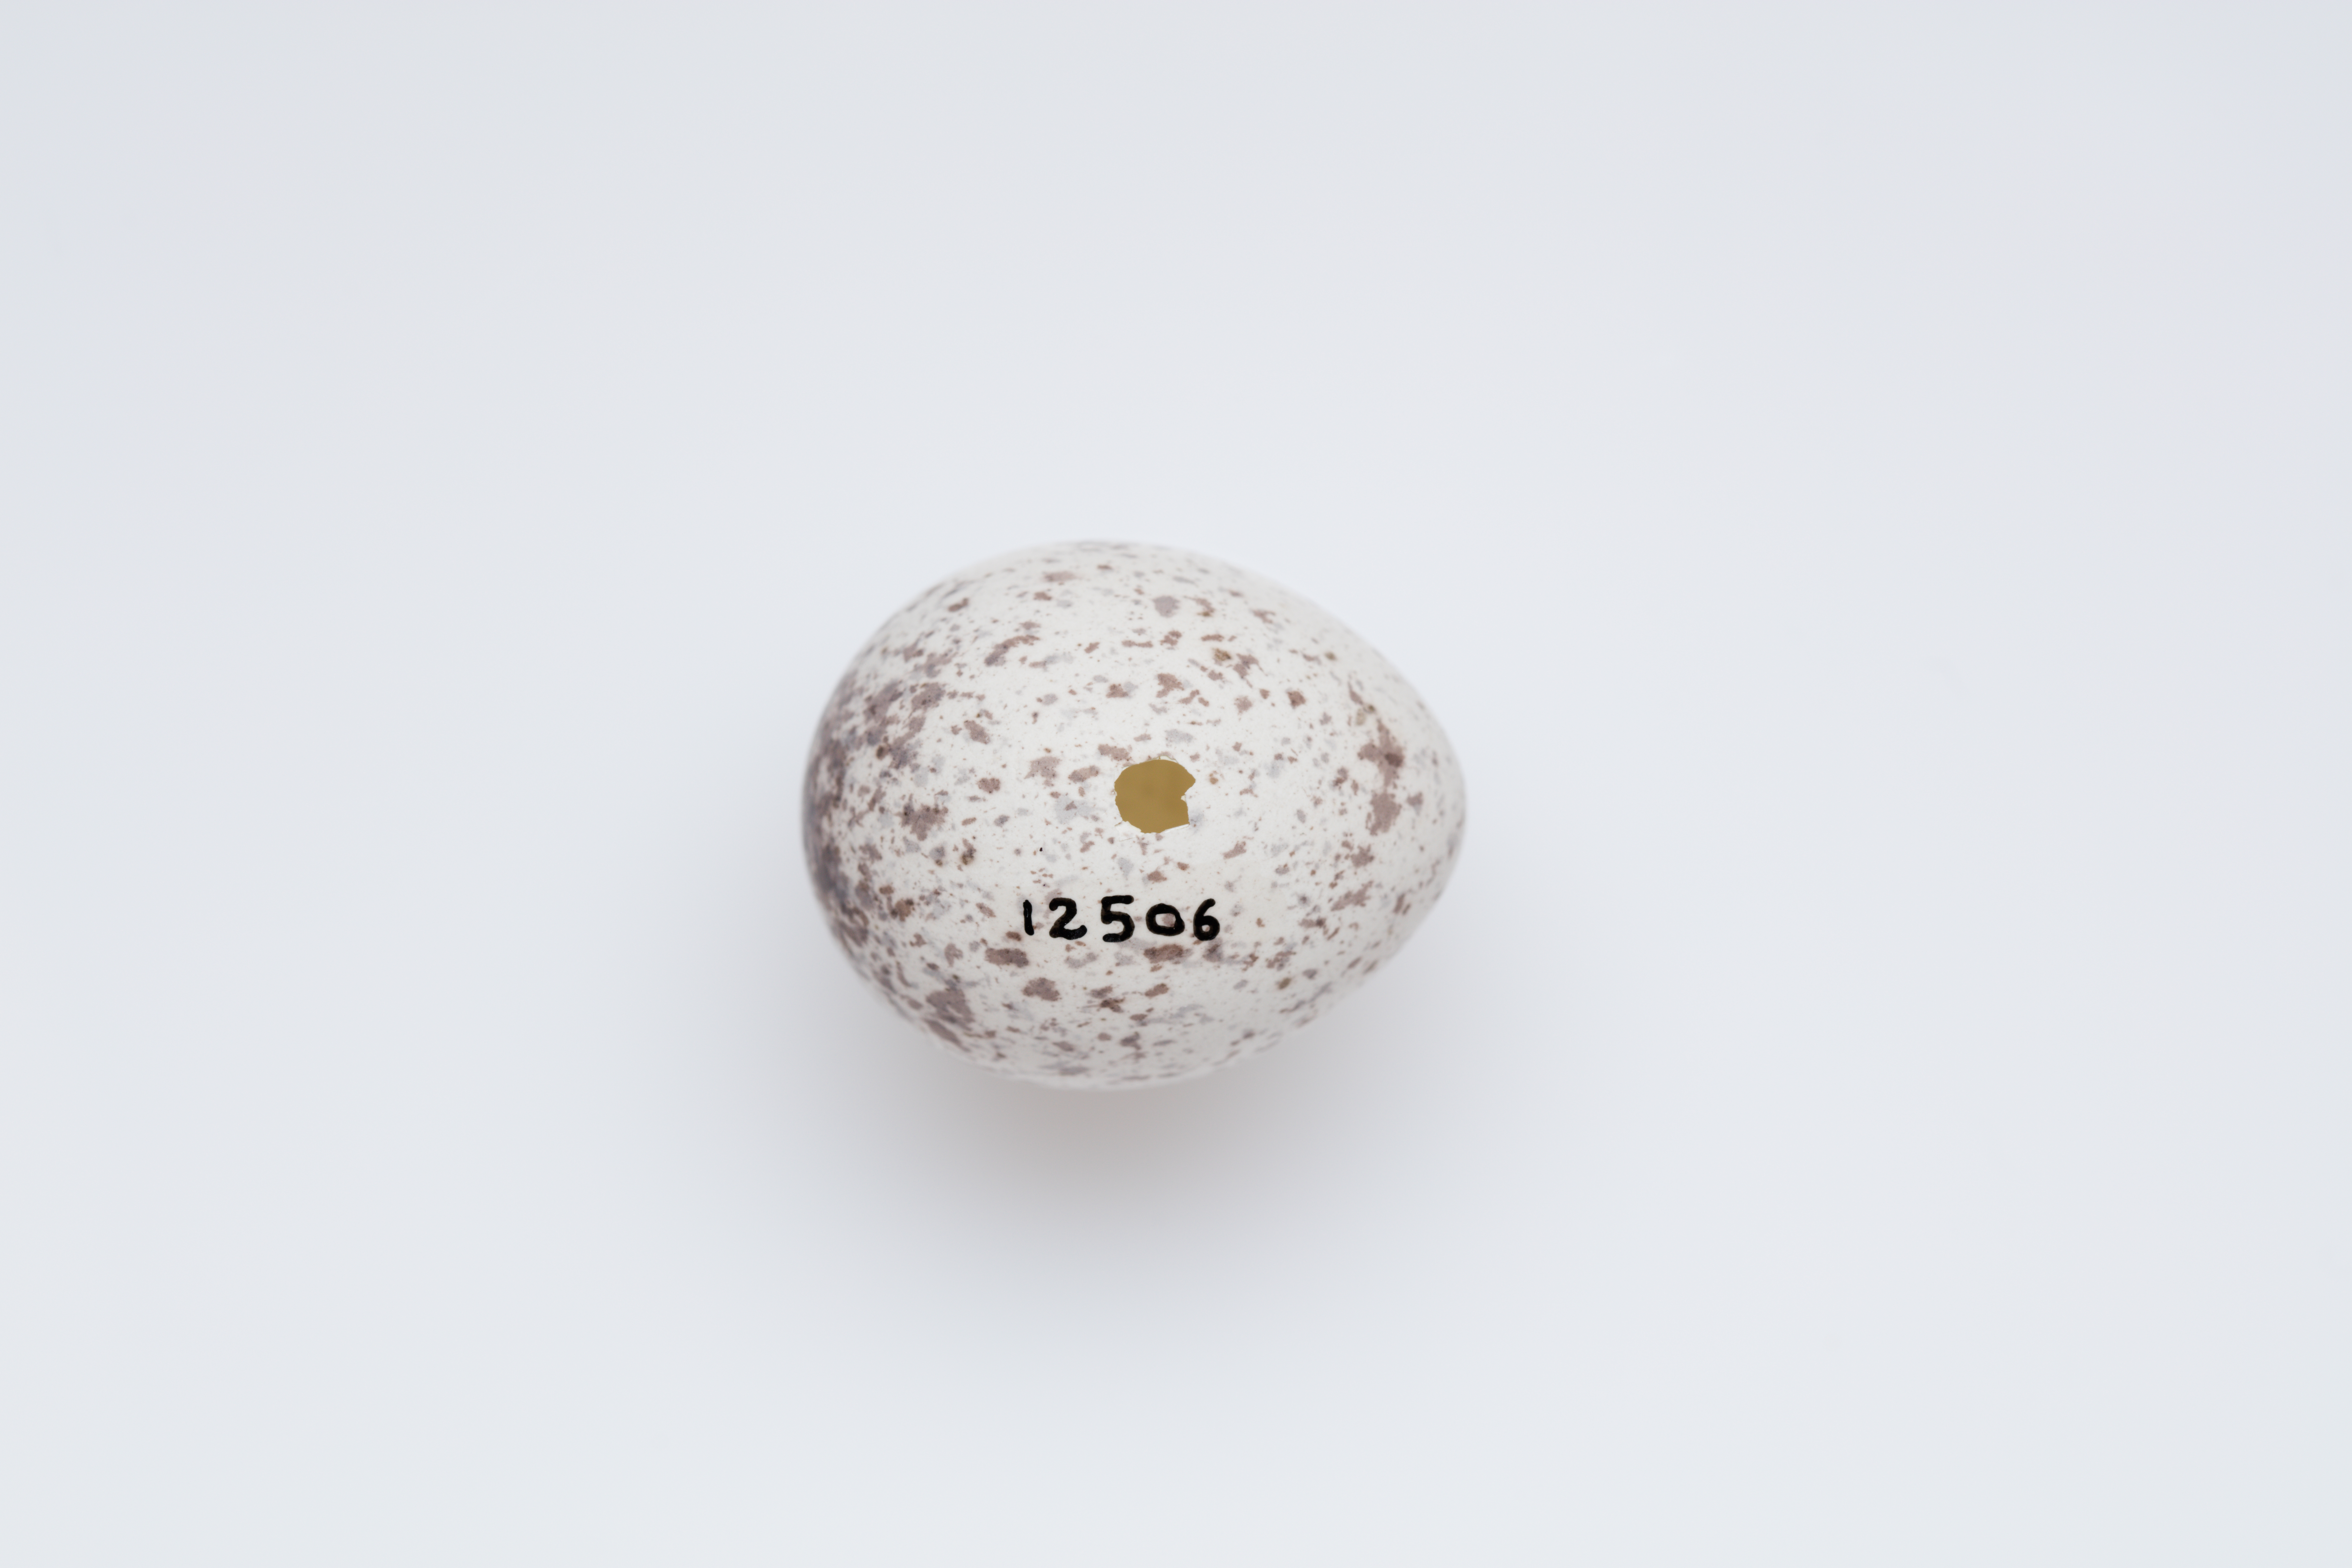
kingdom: Animalia
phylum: Chordata
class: Aves
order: Passeriformes
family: Callaeatidae
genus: Philesturnus
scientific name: Philesturnus carunculatus
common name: South island saddleback
